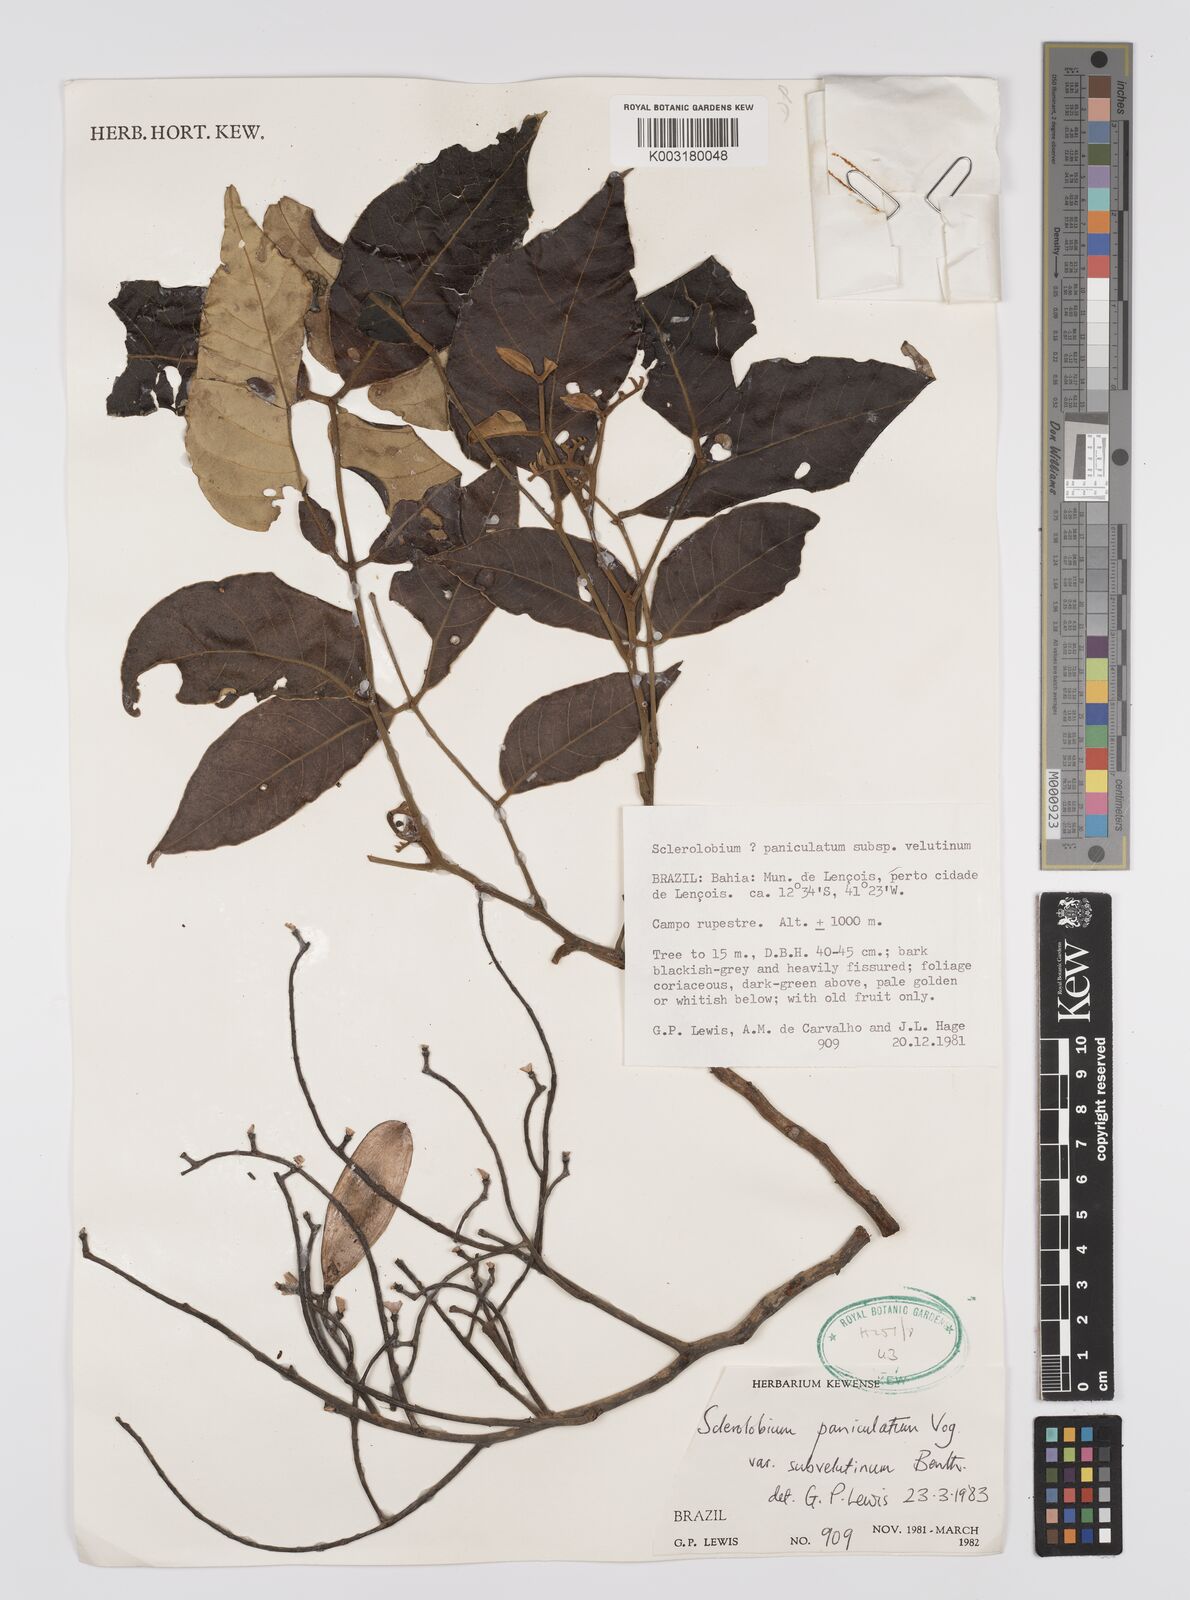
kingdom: Plantae
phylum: Tracheophyta
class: Magnoliopsida
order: Fabales
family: Fabaceae
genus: Tachigali
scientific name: Tachigali subvelutina
